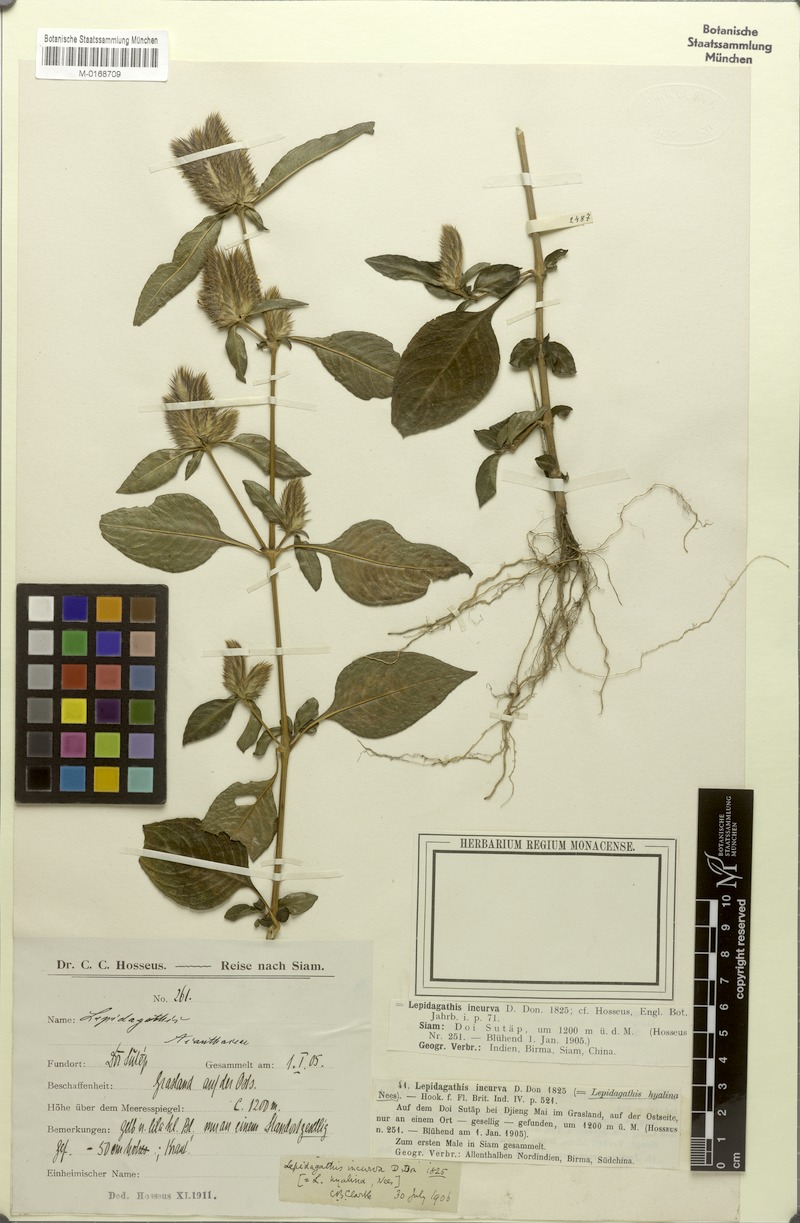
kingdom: Plantae
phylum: Tracheophyta
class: Magnoliopsida
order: Lamiales
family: Acanthaceae
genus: Lepidagathis
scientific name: Lepidagathis incurva
